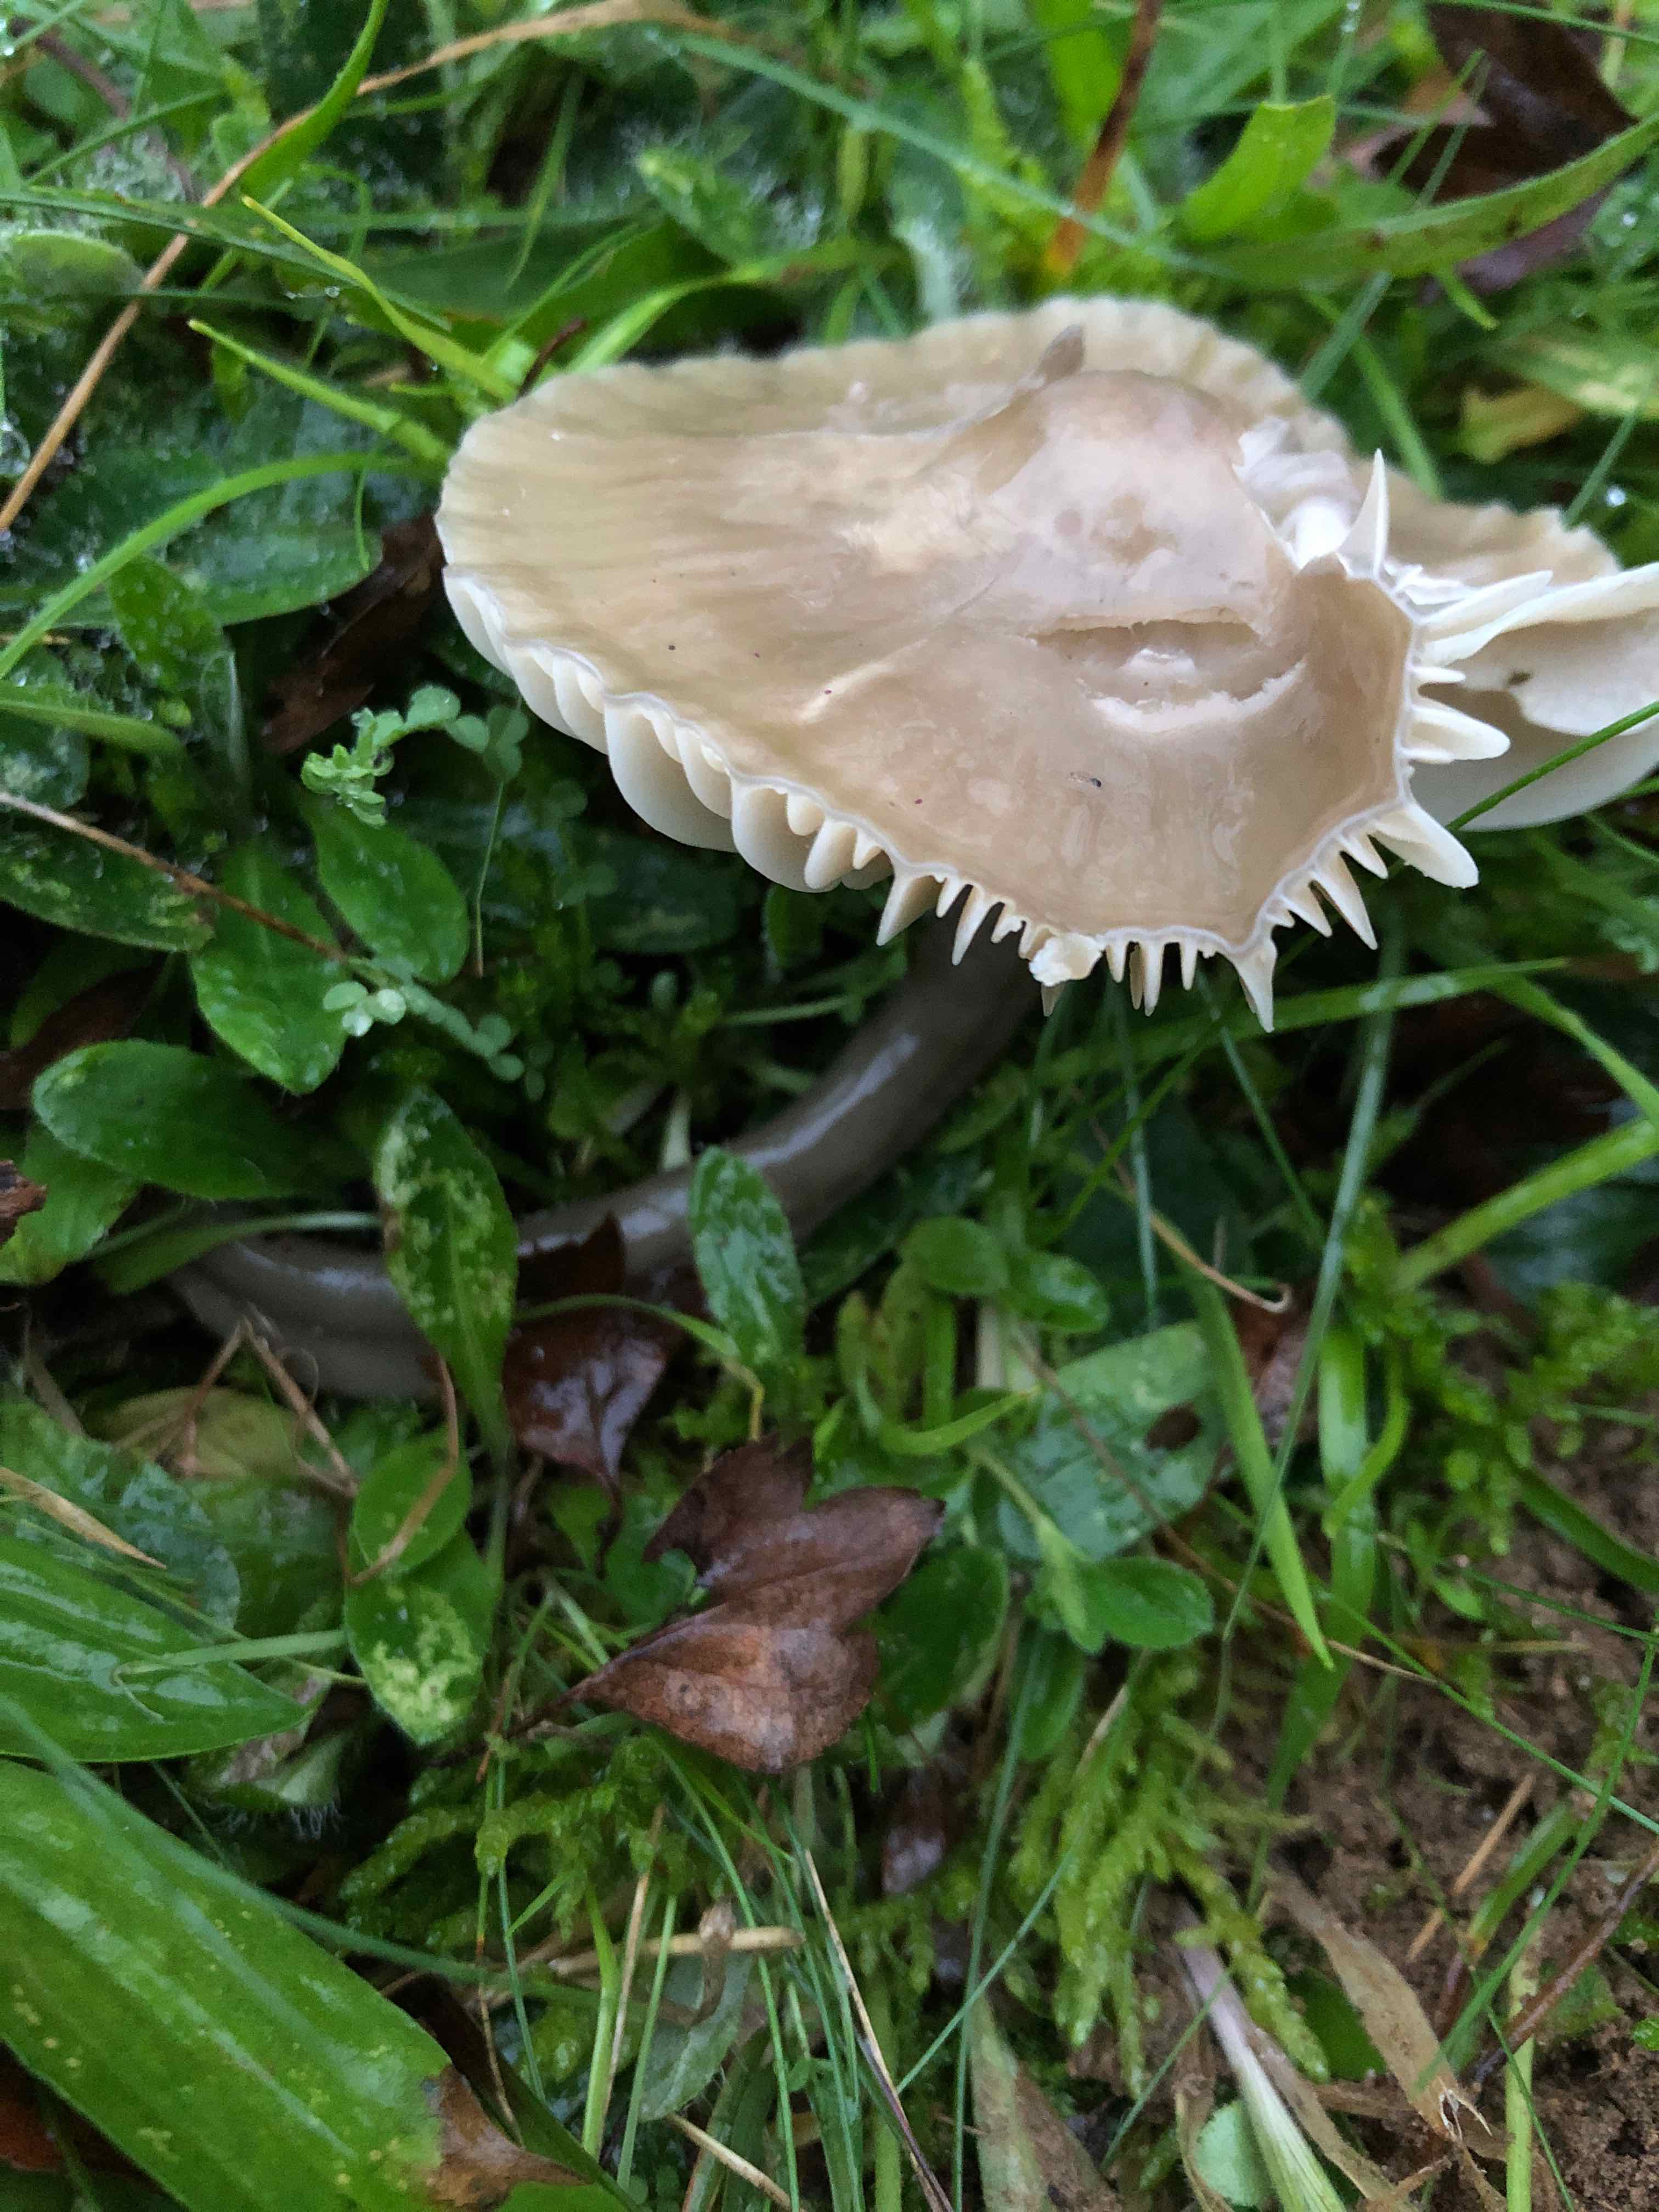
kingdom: Fungi
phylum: Basidiomycota
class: Agaricomycetes
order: Agaricales
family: Hygrophoraceae
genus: Gliophorus
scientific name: Gliophorus irrigatus
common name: slimet vokshat
